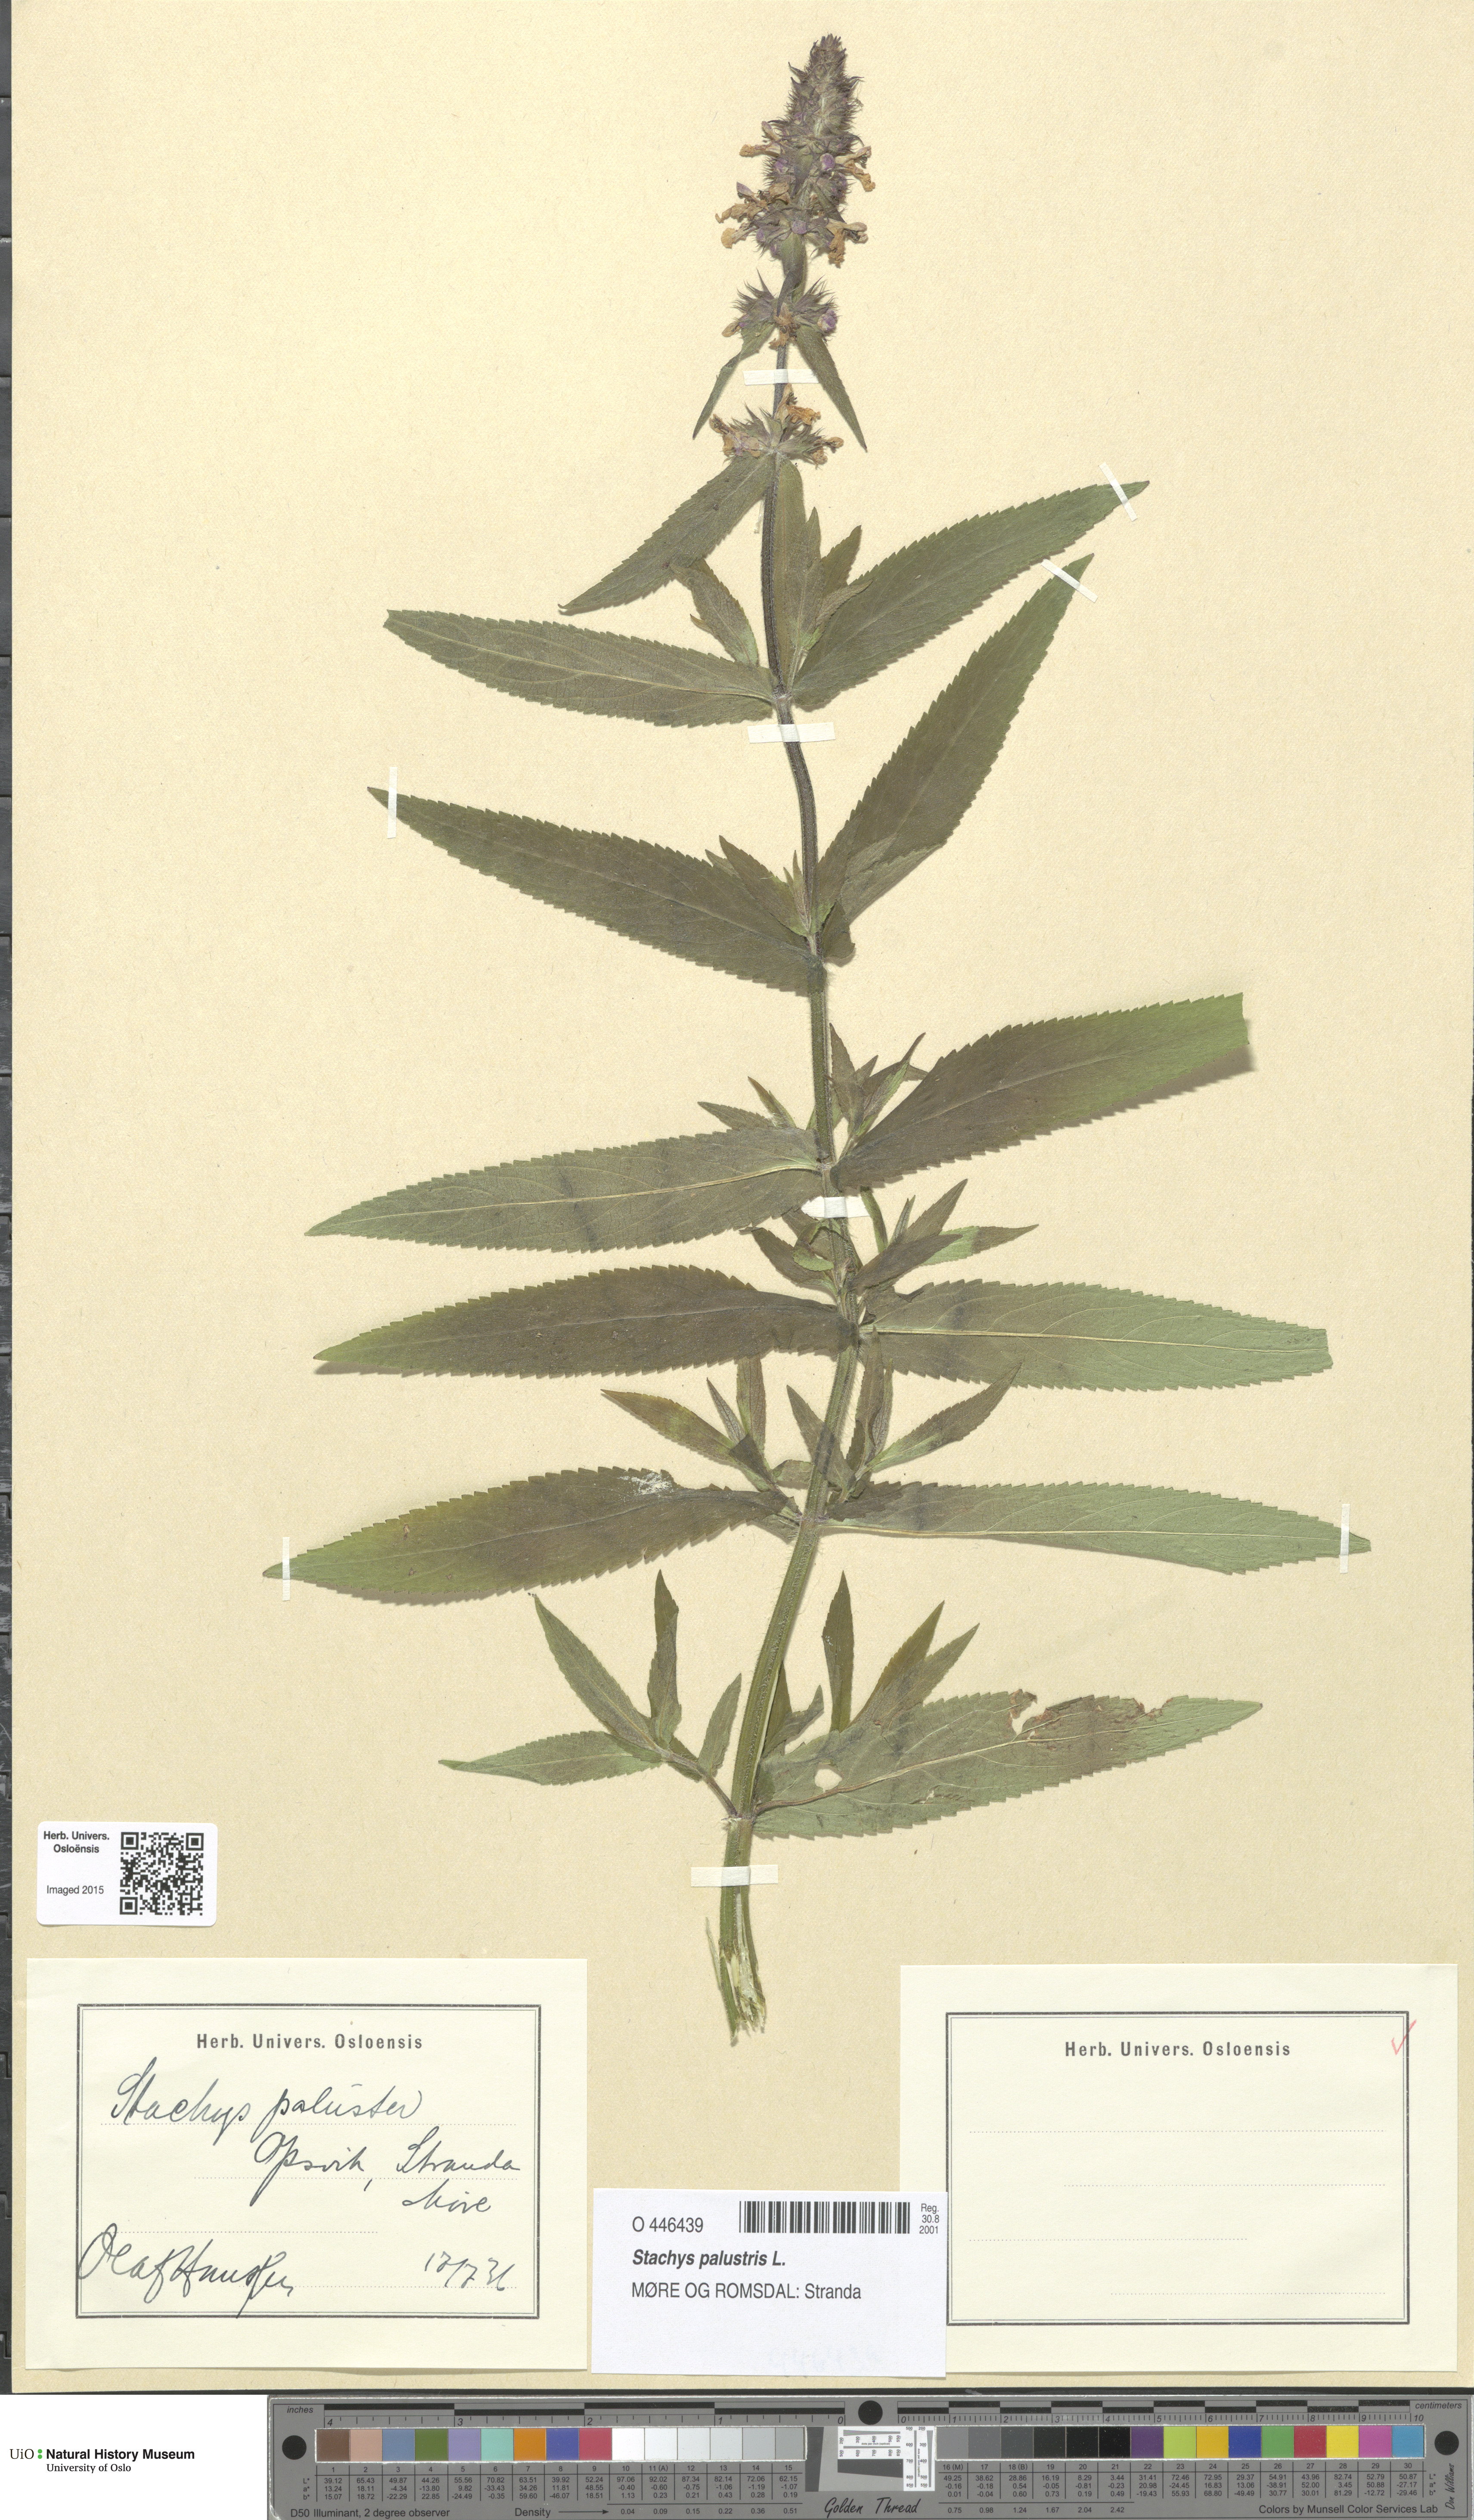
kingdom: Plantae
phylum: Tracheophyta
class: Magnoliopsida
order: Lamiales
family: Lamiaceae
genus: Stachys
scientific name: Stachys palustris
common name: Marsh woundwort
